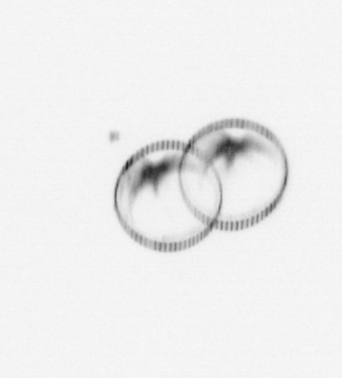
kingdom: Chromista
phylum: Myzozoa
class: Dinophyceae
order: Noctilucales
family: Noctilucaceae
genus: Noctiluca
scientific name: Noctiluca scintillans
